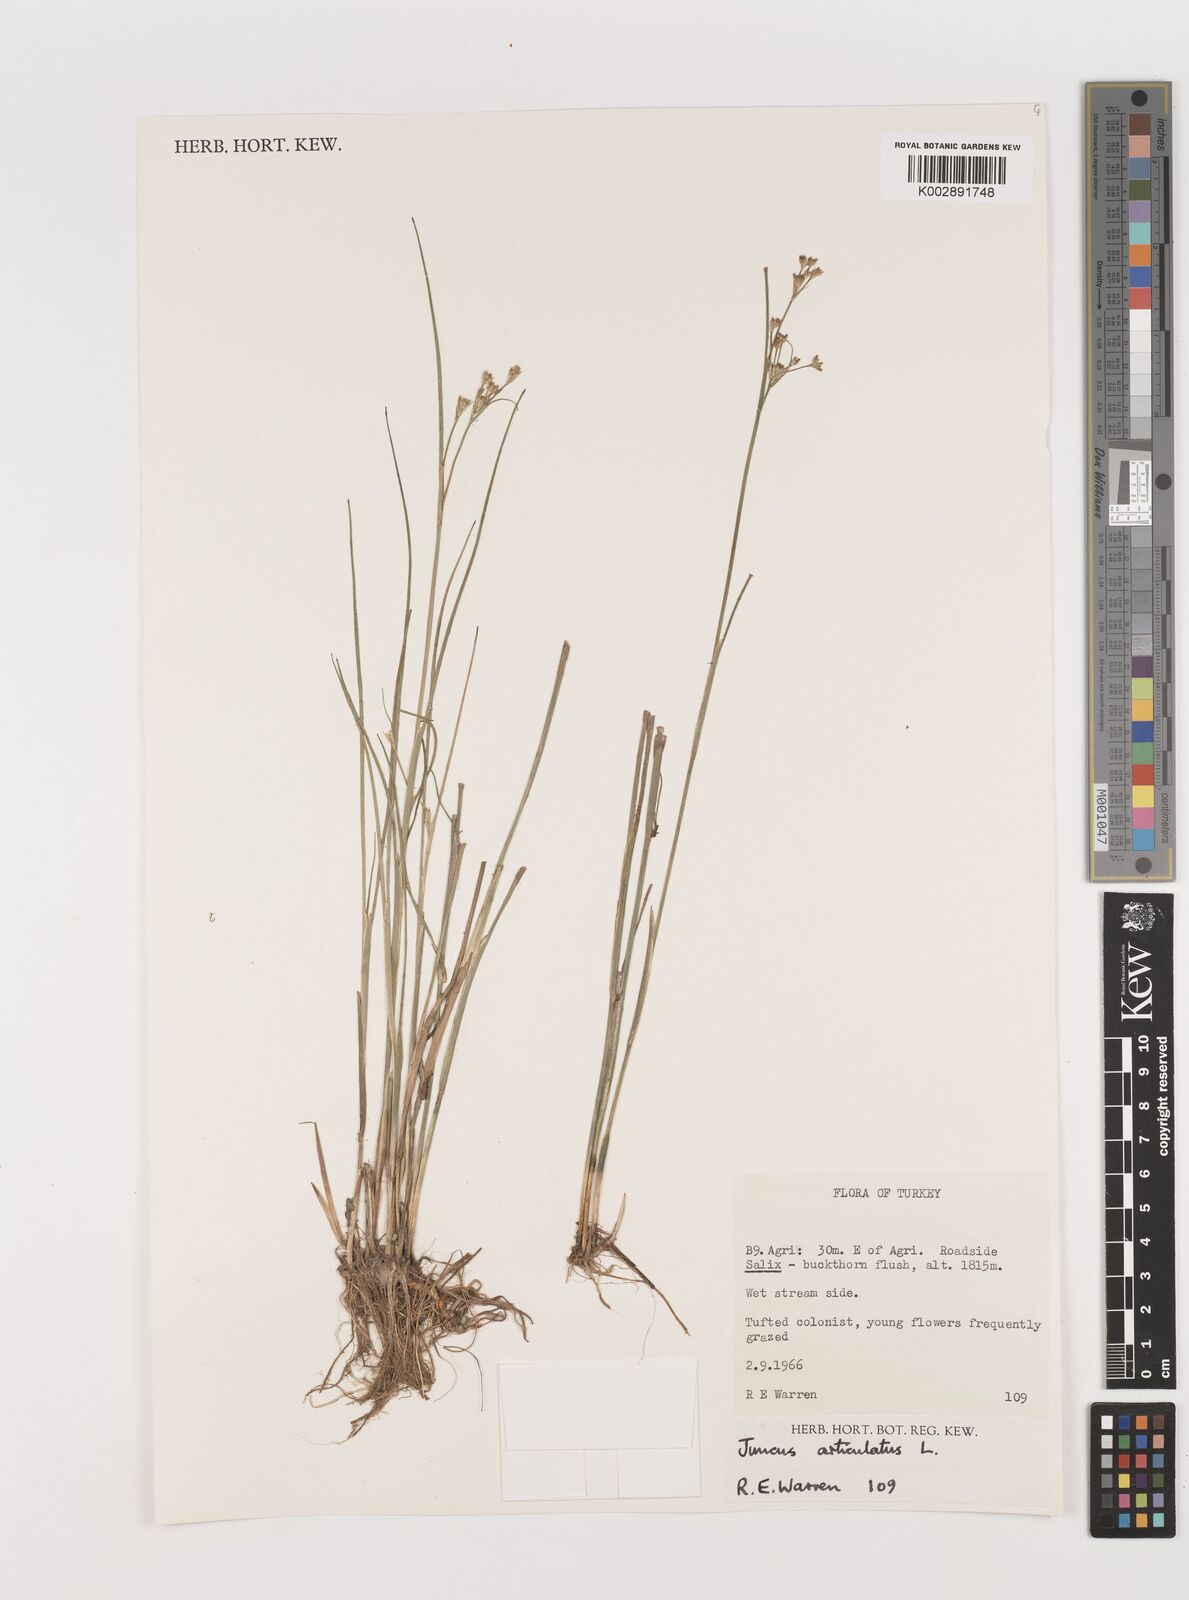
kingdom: Plantae
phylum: Tracheophyta
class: Liliopsida
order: Poales
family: Juncaceae
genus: Juncus
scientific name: Juncus articulatus
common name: Jointed rush
